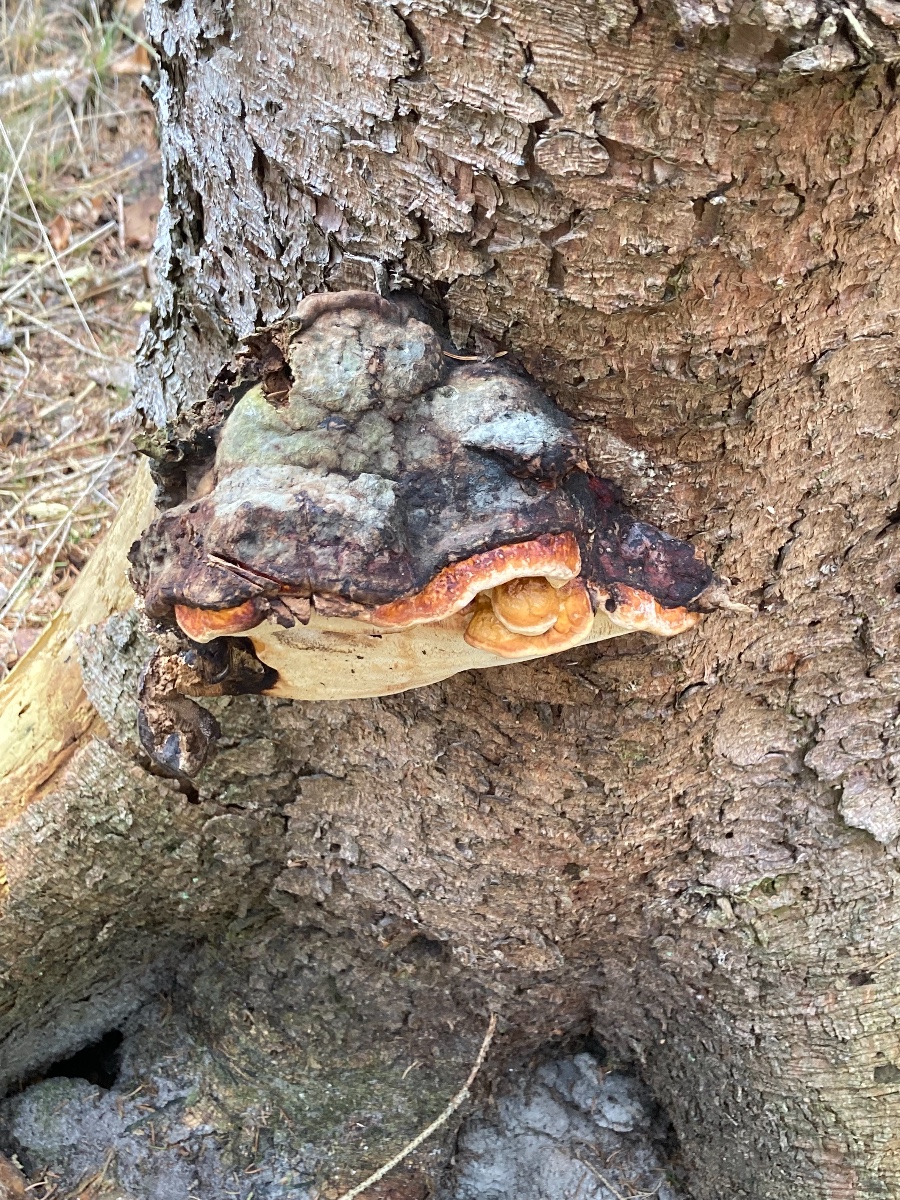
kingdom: Fungi
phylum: Basidiomycota
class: Agaricomycetes
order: Gloeophyllales
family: Gloeophyllaceae
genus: Gloeophyllum
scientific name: Gloeophyllum sepiarium
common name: fyrre-korkhat
